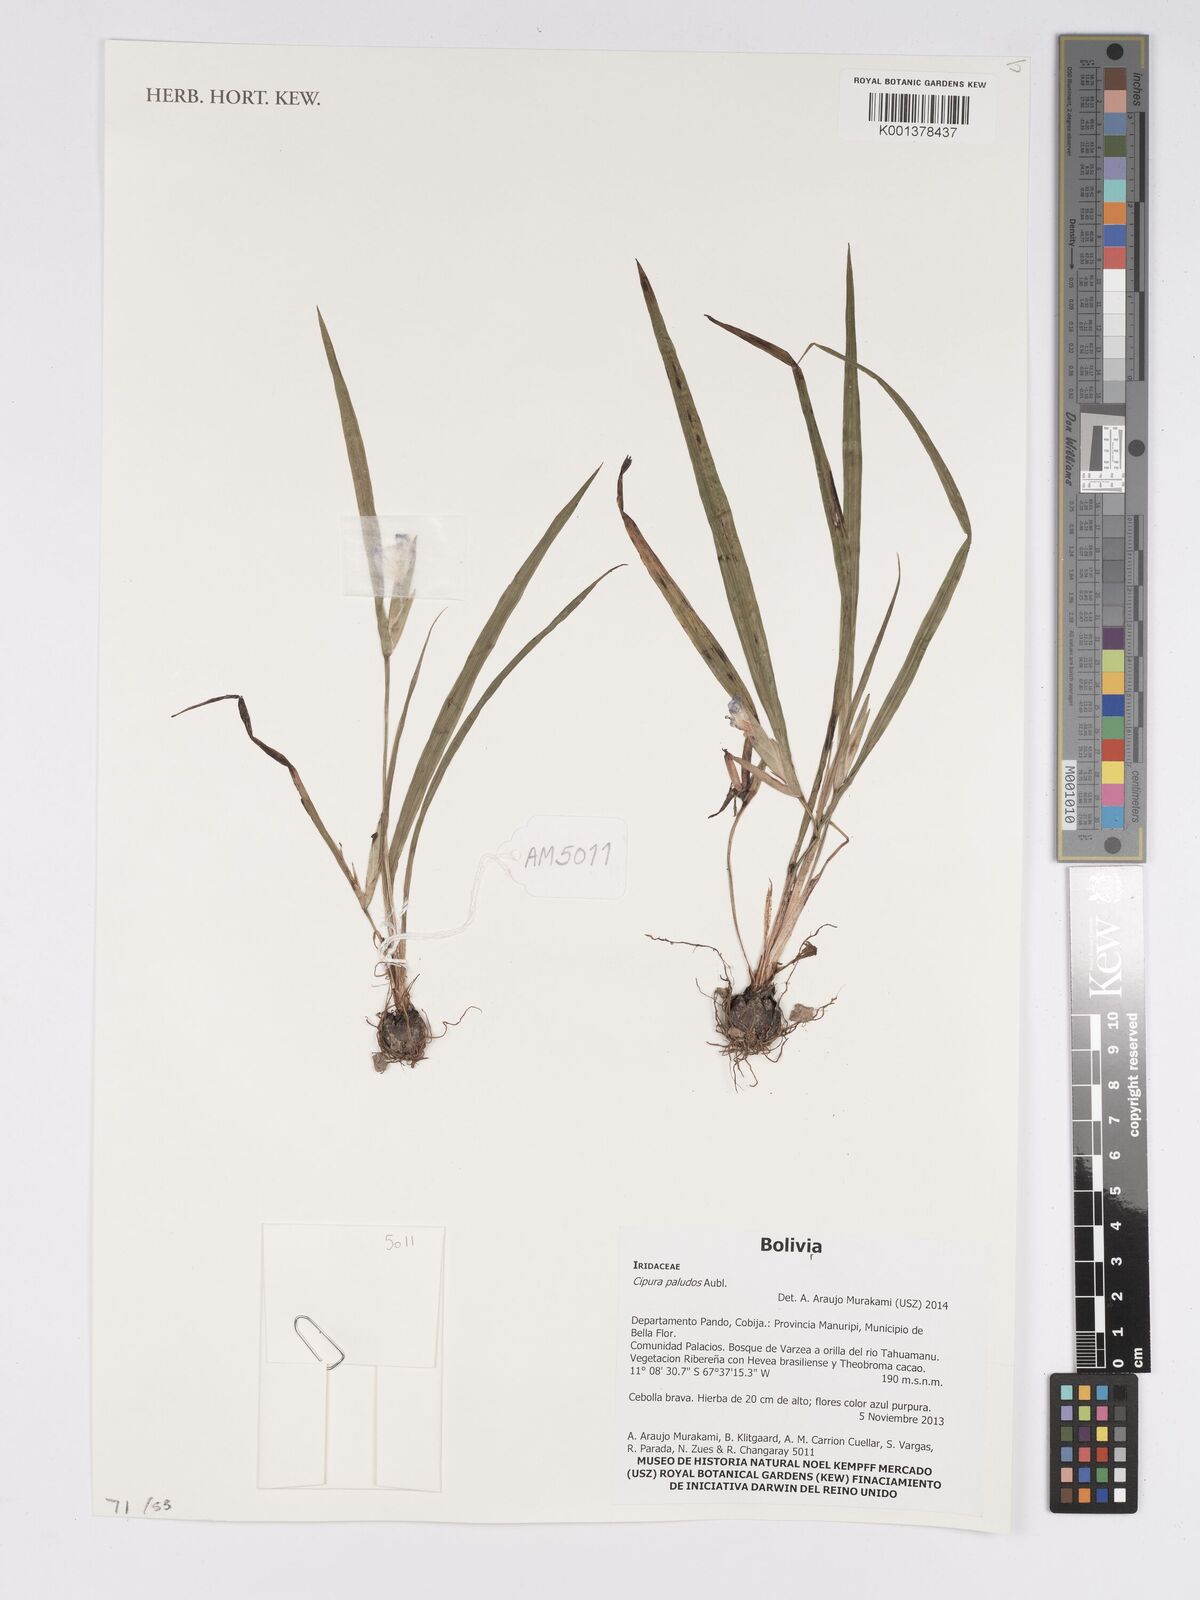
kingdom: Plantae
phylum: Tracheophyta
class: Liliopsida
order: Asparagales
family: Iridaceae
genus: Cipura
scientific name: Cipura paludosa
